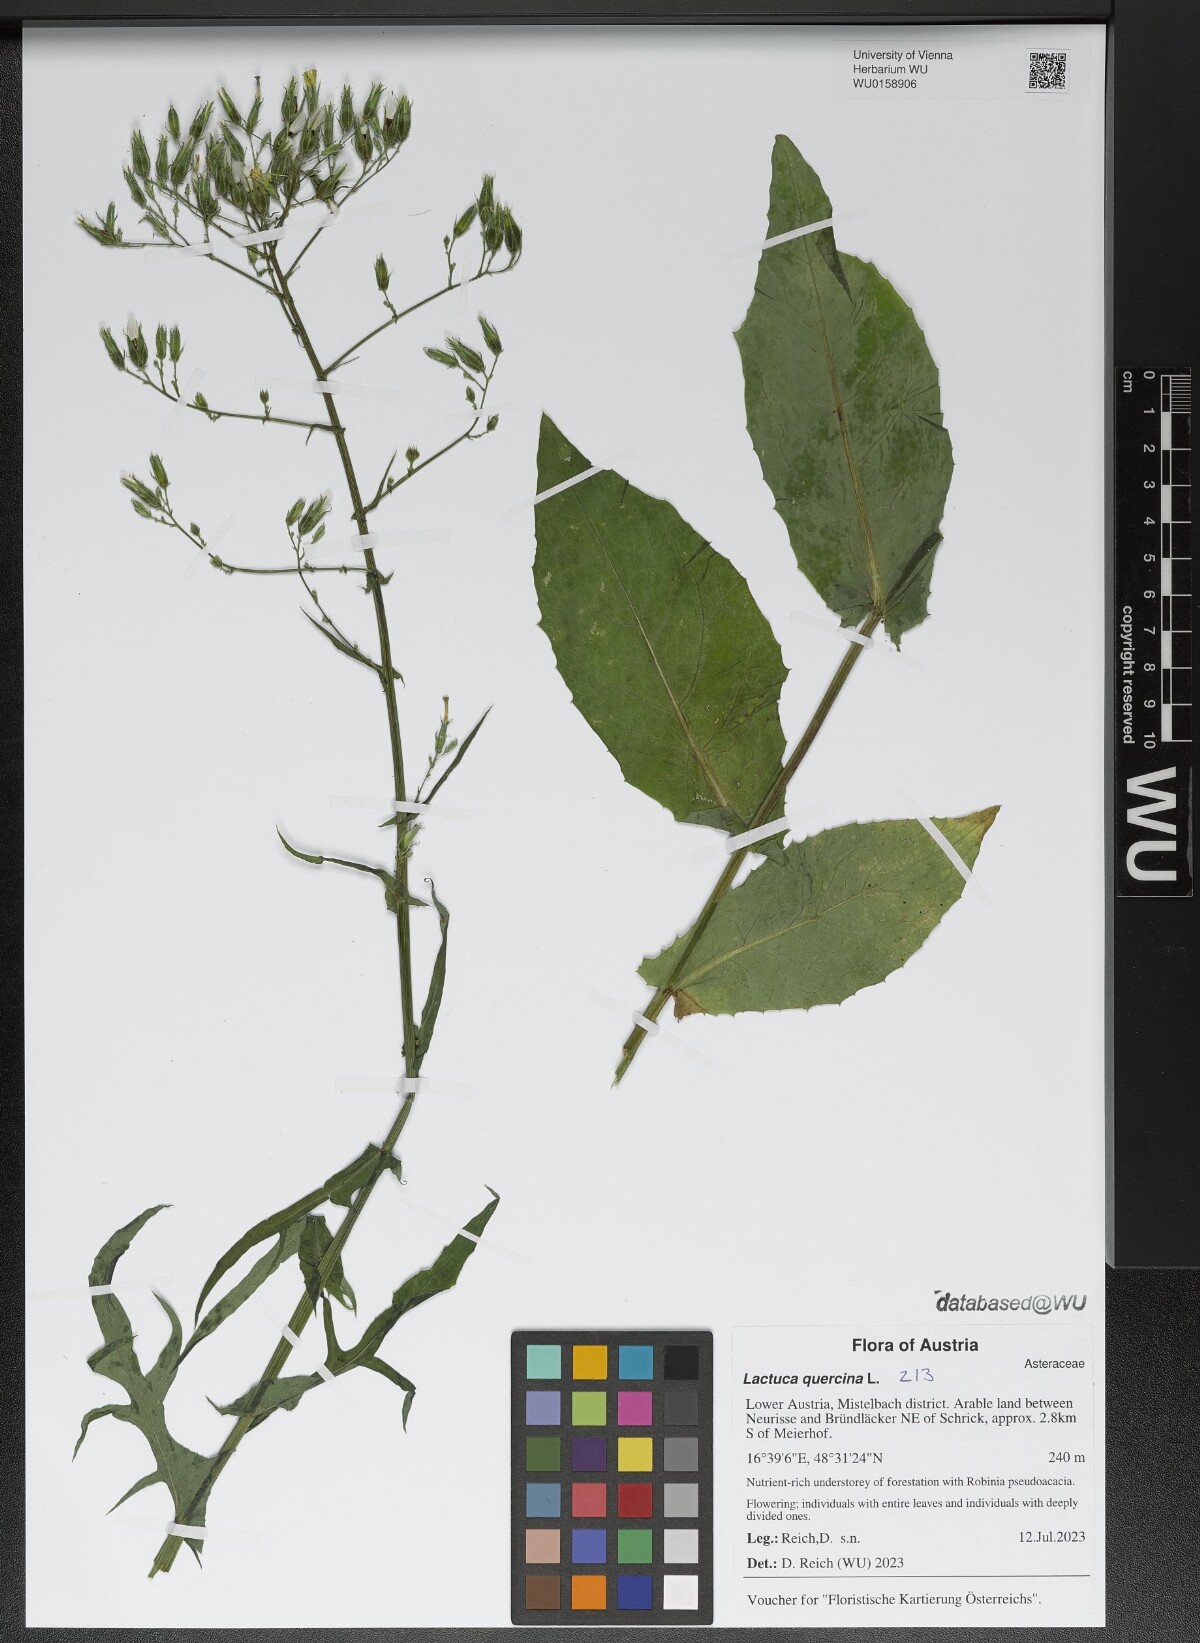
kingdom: Plantae
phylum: Tracheophyta
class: Magnoliopsida
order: Asterales
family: Asteraceae
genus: Lactuca
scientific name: Lactuca quercina
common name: Wild lettuce
